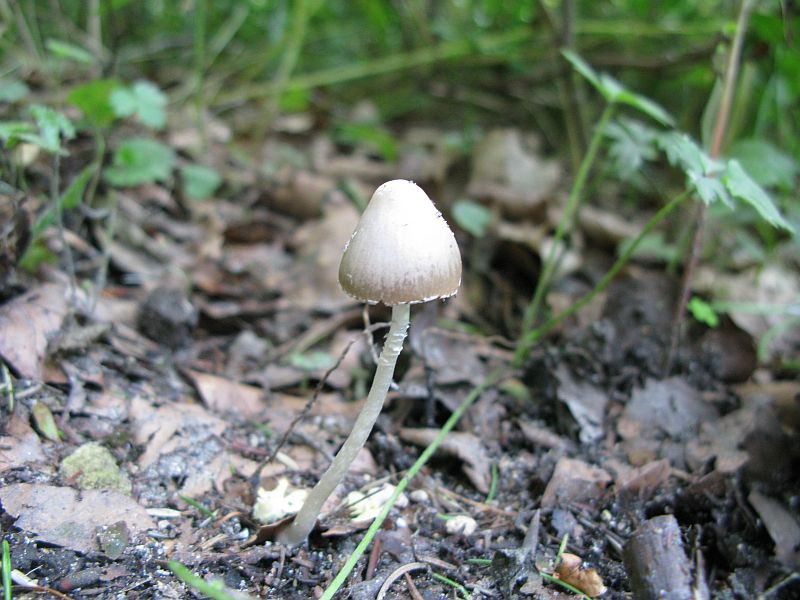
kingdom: Fungi
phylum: Basidiomycota
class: Agaricomycetes
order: Agaricales
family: Psathyrellaceae
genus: Coprinopsis
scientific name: Coprinopsis marcescibilis
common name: ruderat-blækhat
